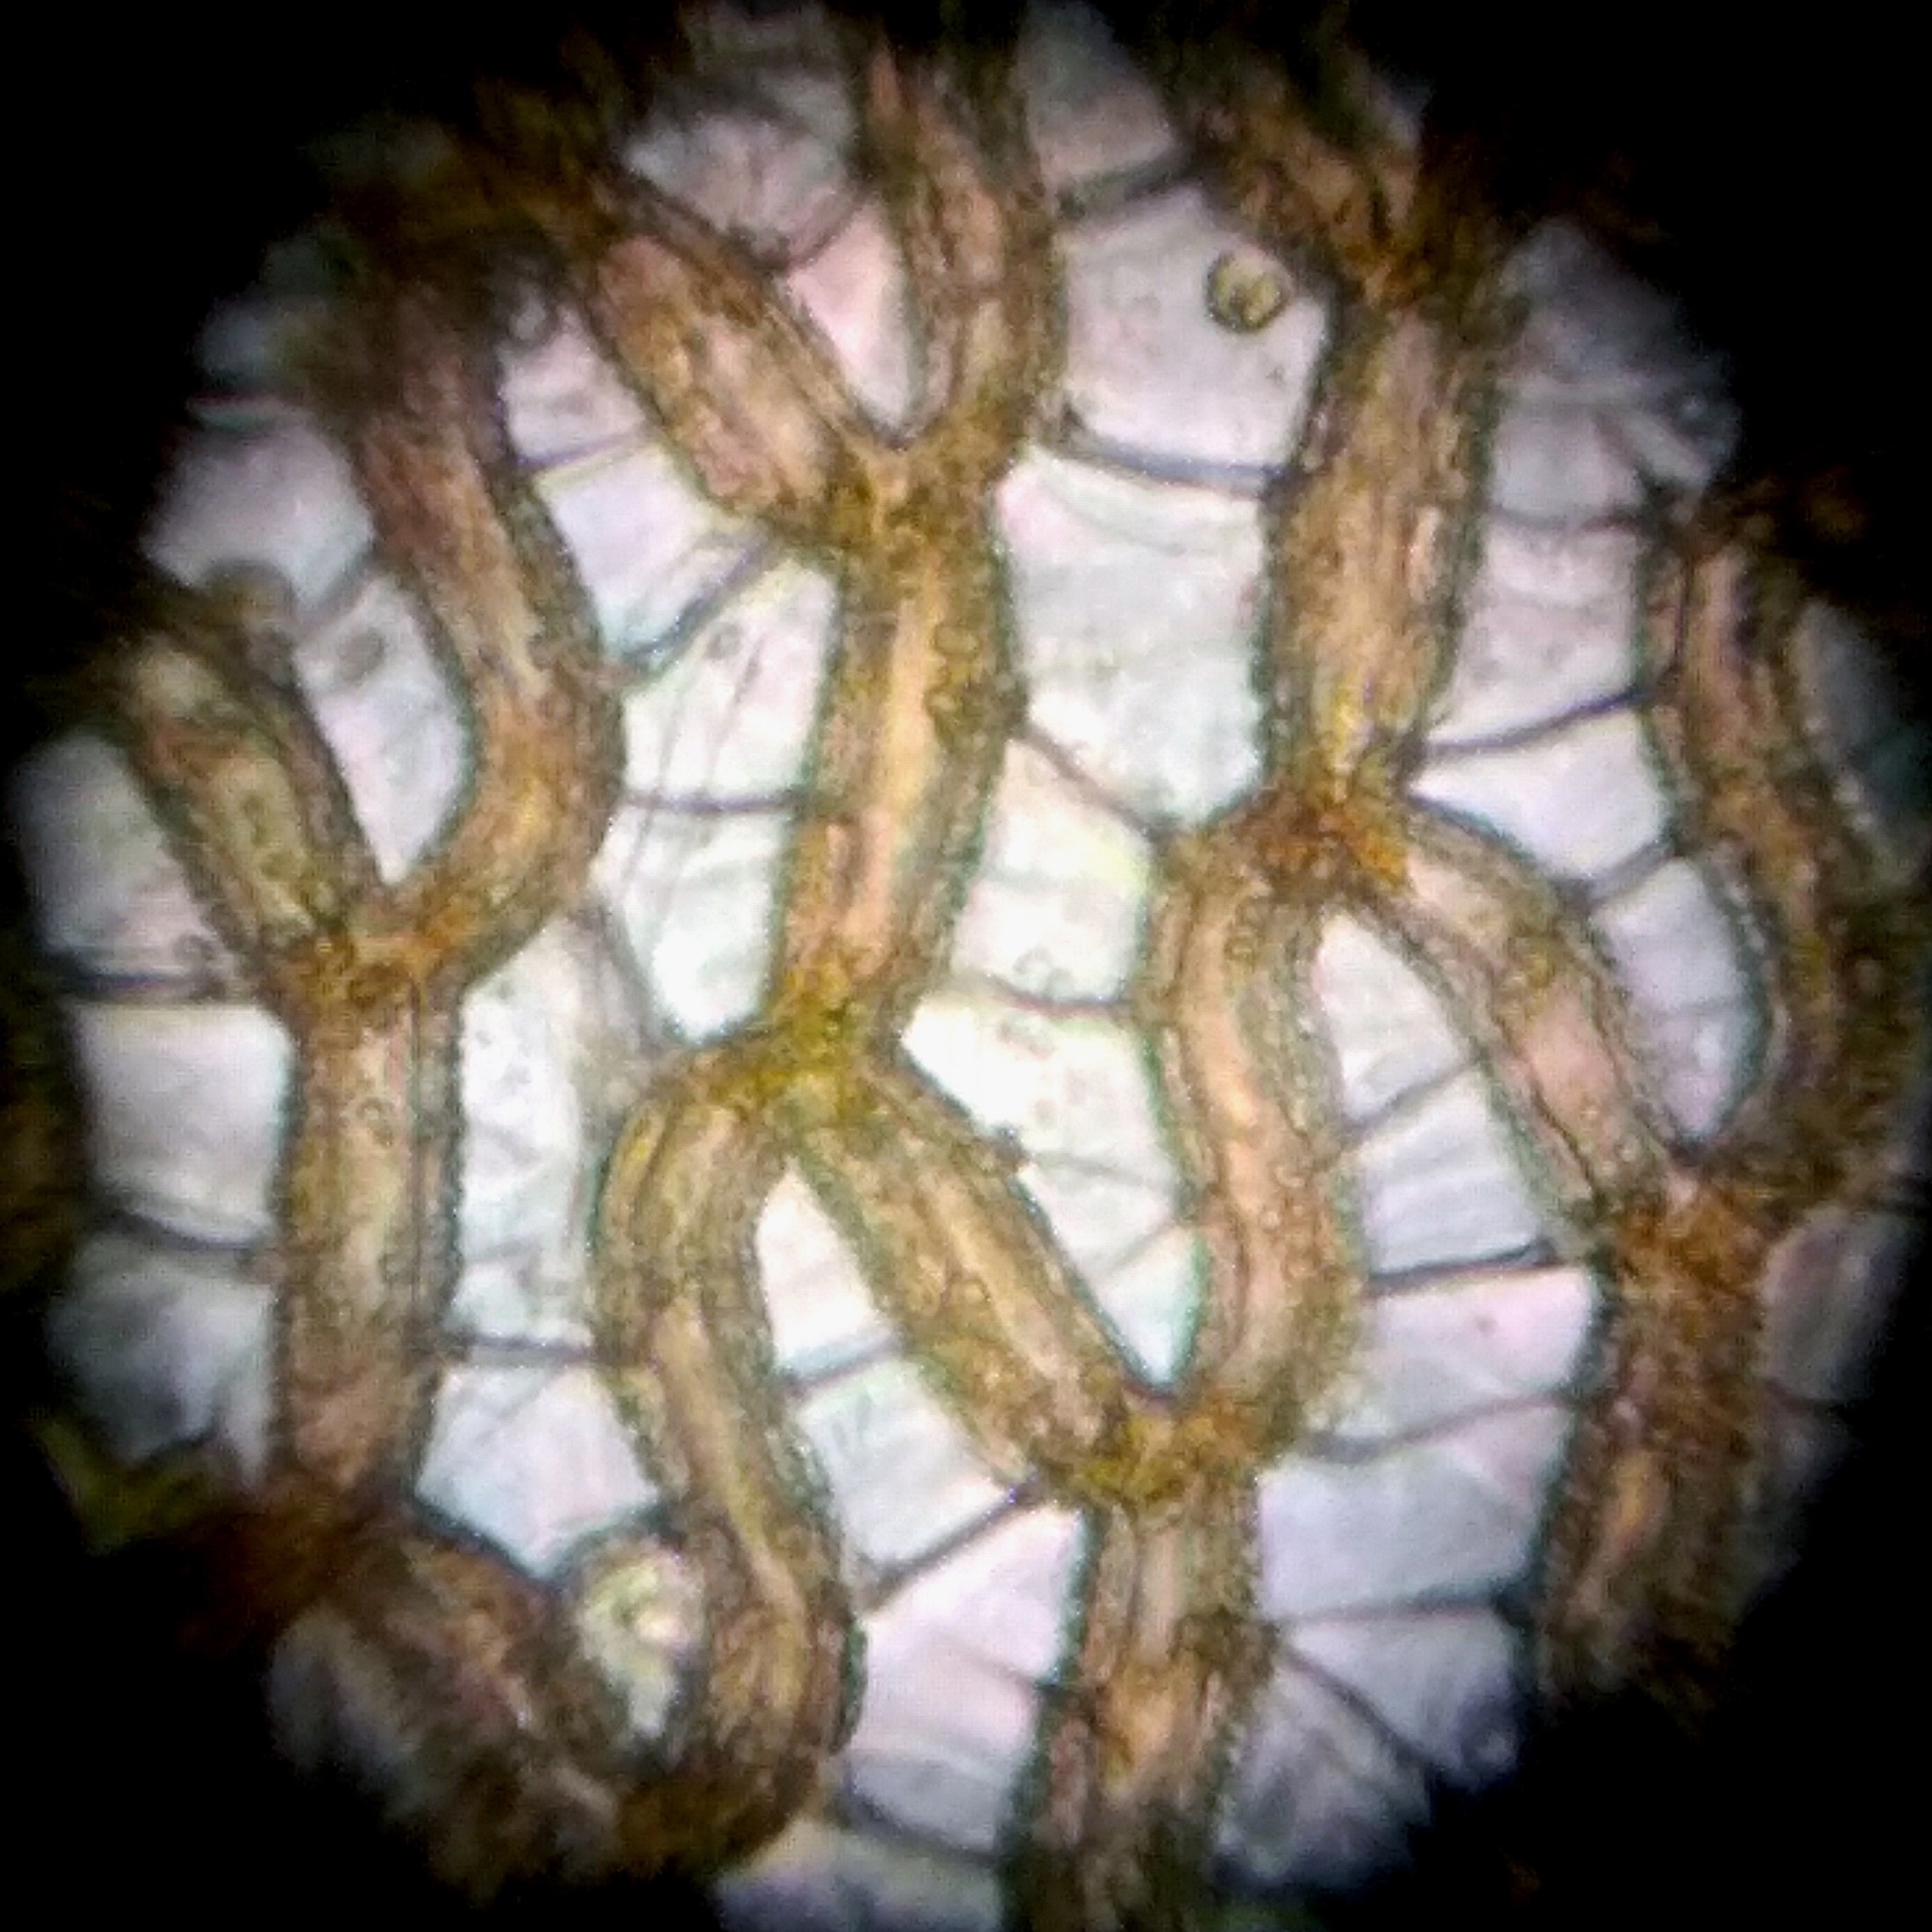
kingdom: Plantae
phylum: Bryophyta
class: Sphagnopsida
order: Sphagnales
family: Sphagnaceae
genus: Sphagnum
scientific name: Sphagnum papillosum
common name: Sod-tørvemos
